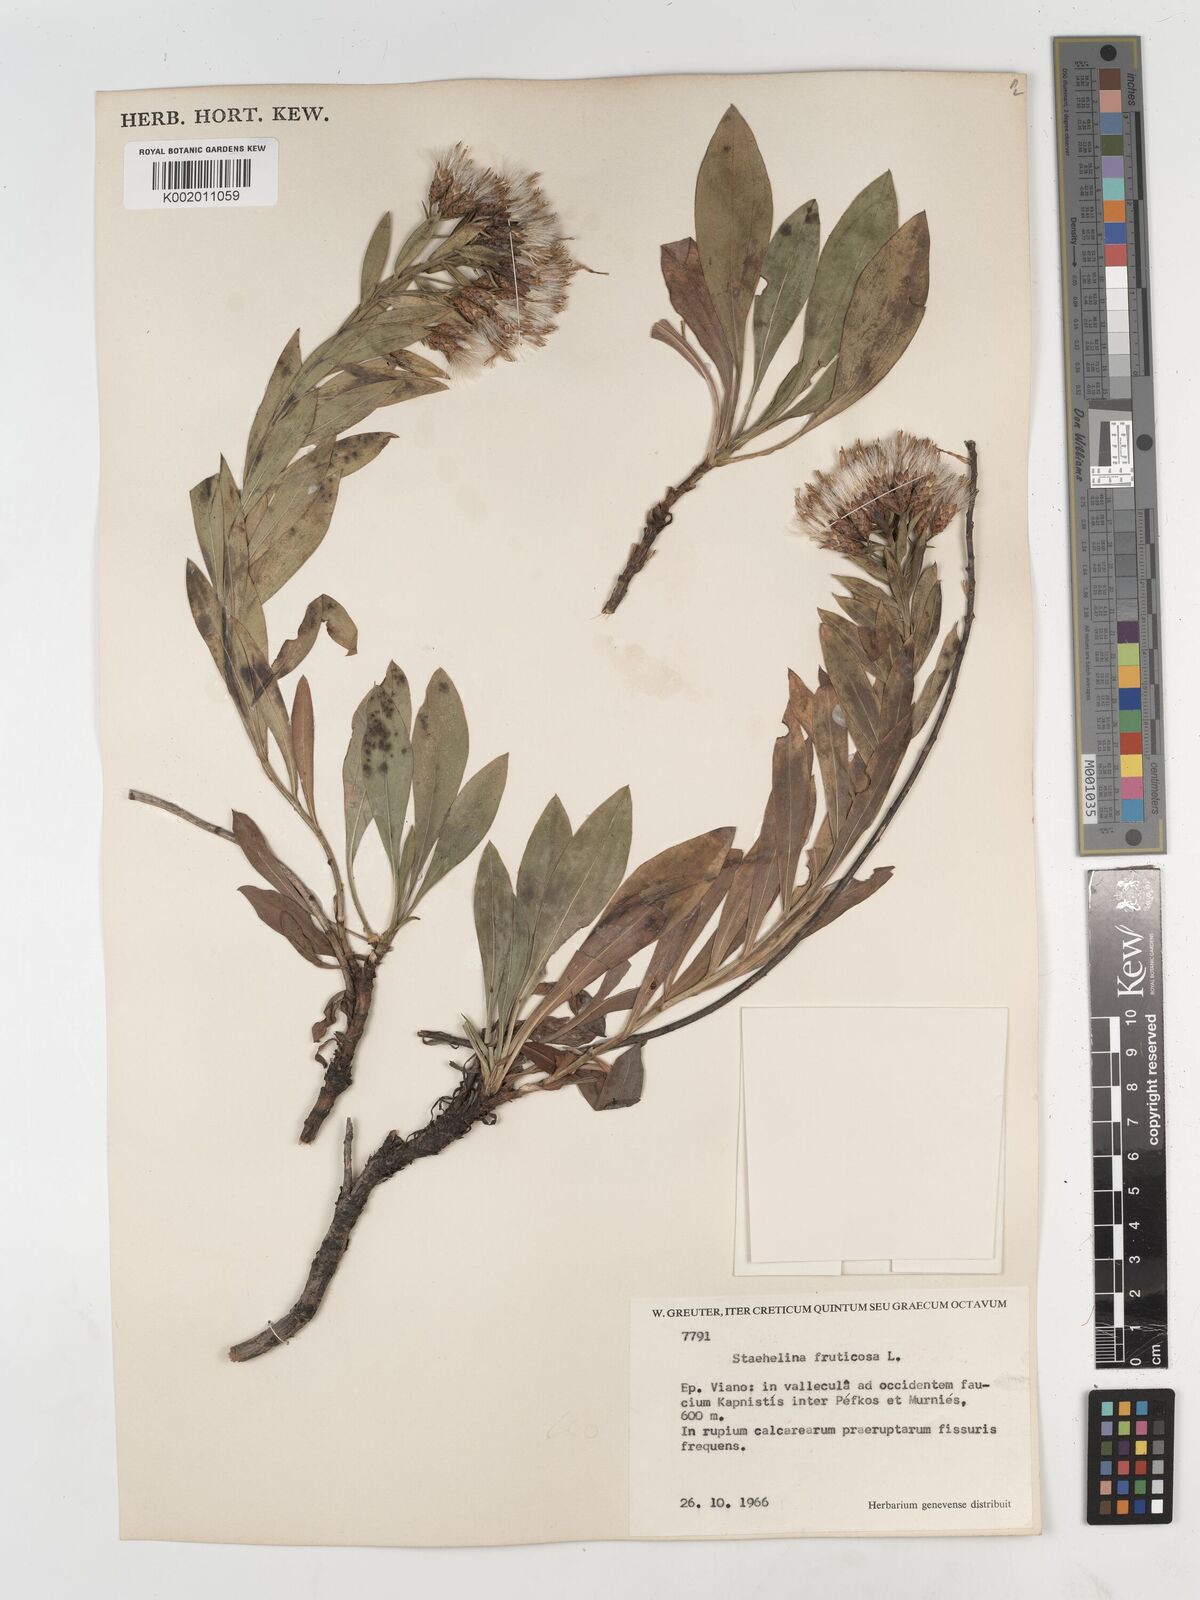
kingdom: Plantae
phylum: Tracheophyta
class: Magnoliopsida
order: Asterales
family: Asteraceae
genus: Hirtellina
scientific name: Hirtellina fruticosa
